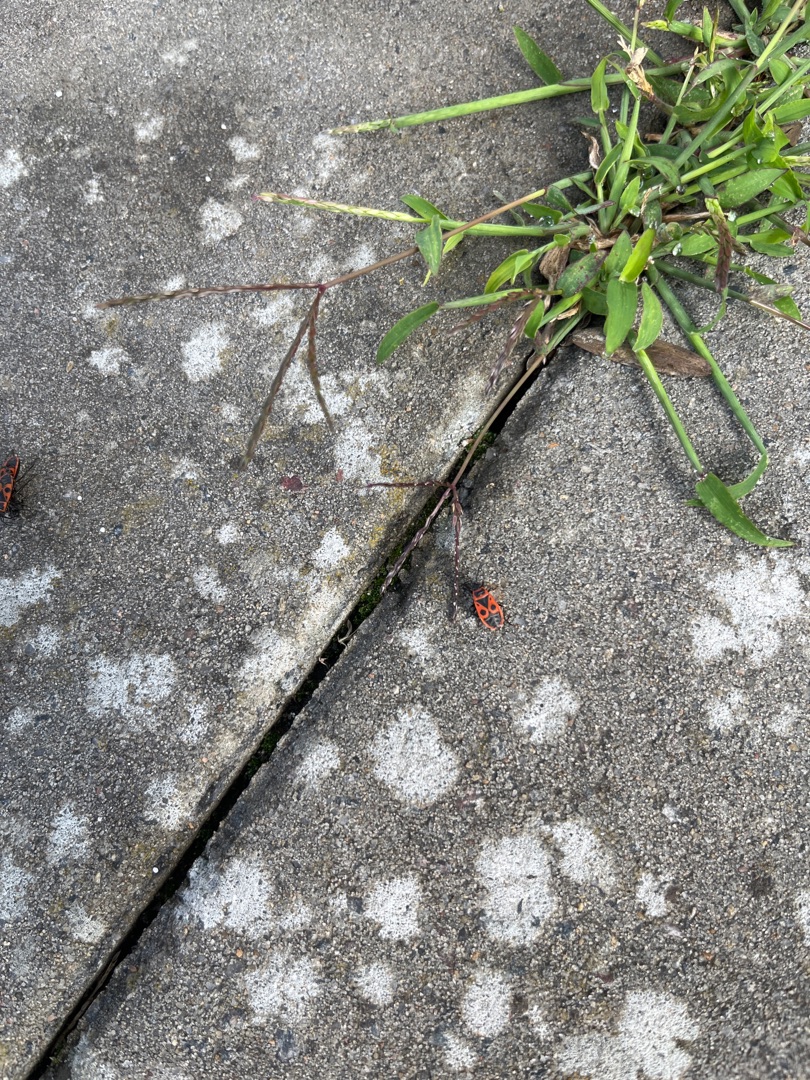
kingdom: Animalia
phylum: Arthropoda
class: Insecta
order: Hemiptera
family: Pyrrhocoridae
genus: Pyrrhocoris
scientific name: Pyrrhocoris apterus
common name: Ildtæge
